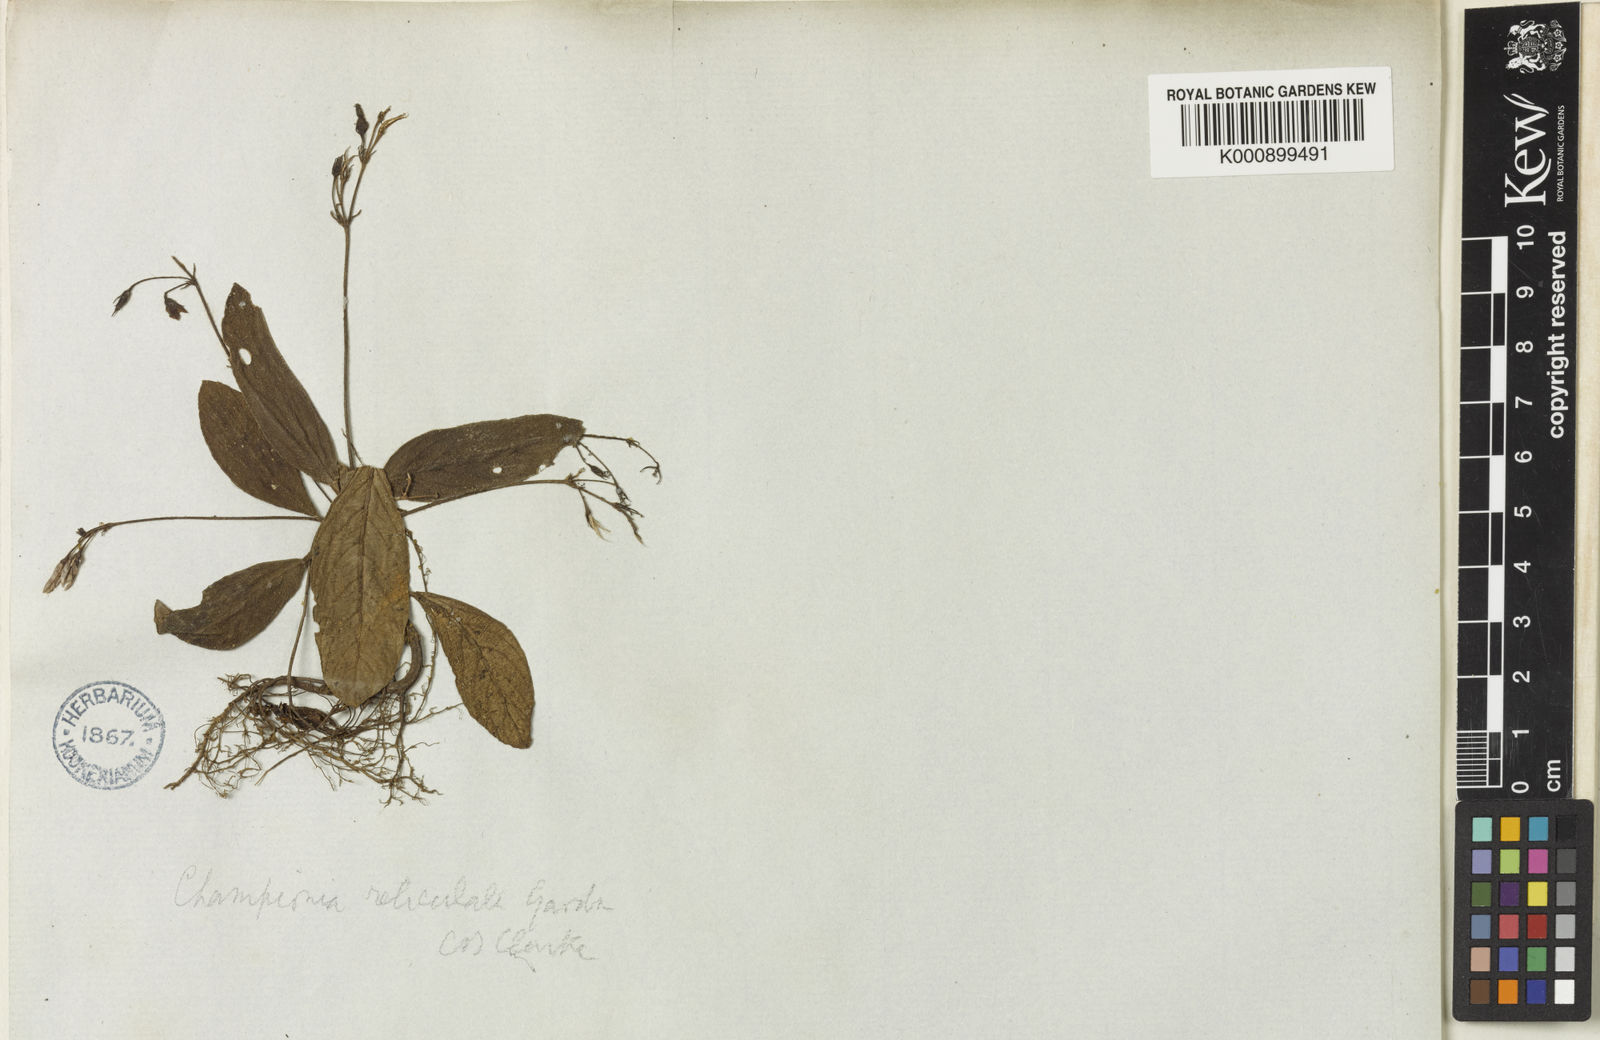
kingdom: Plantae
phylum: Tracheophyta
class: Magnoliopsida
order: Lamiales
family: Gesneriaceae
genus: Championia
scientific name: Championia reticulata
